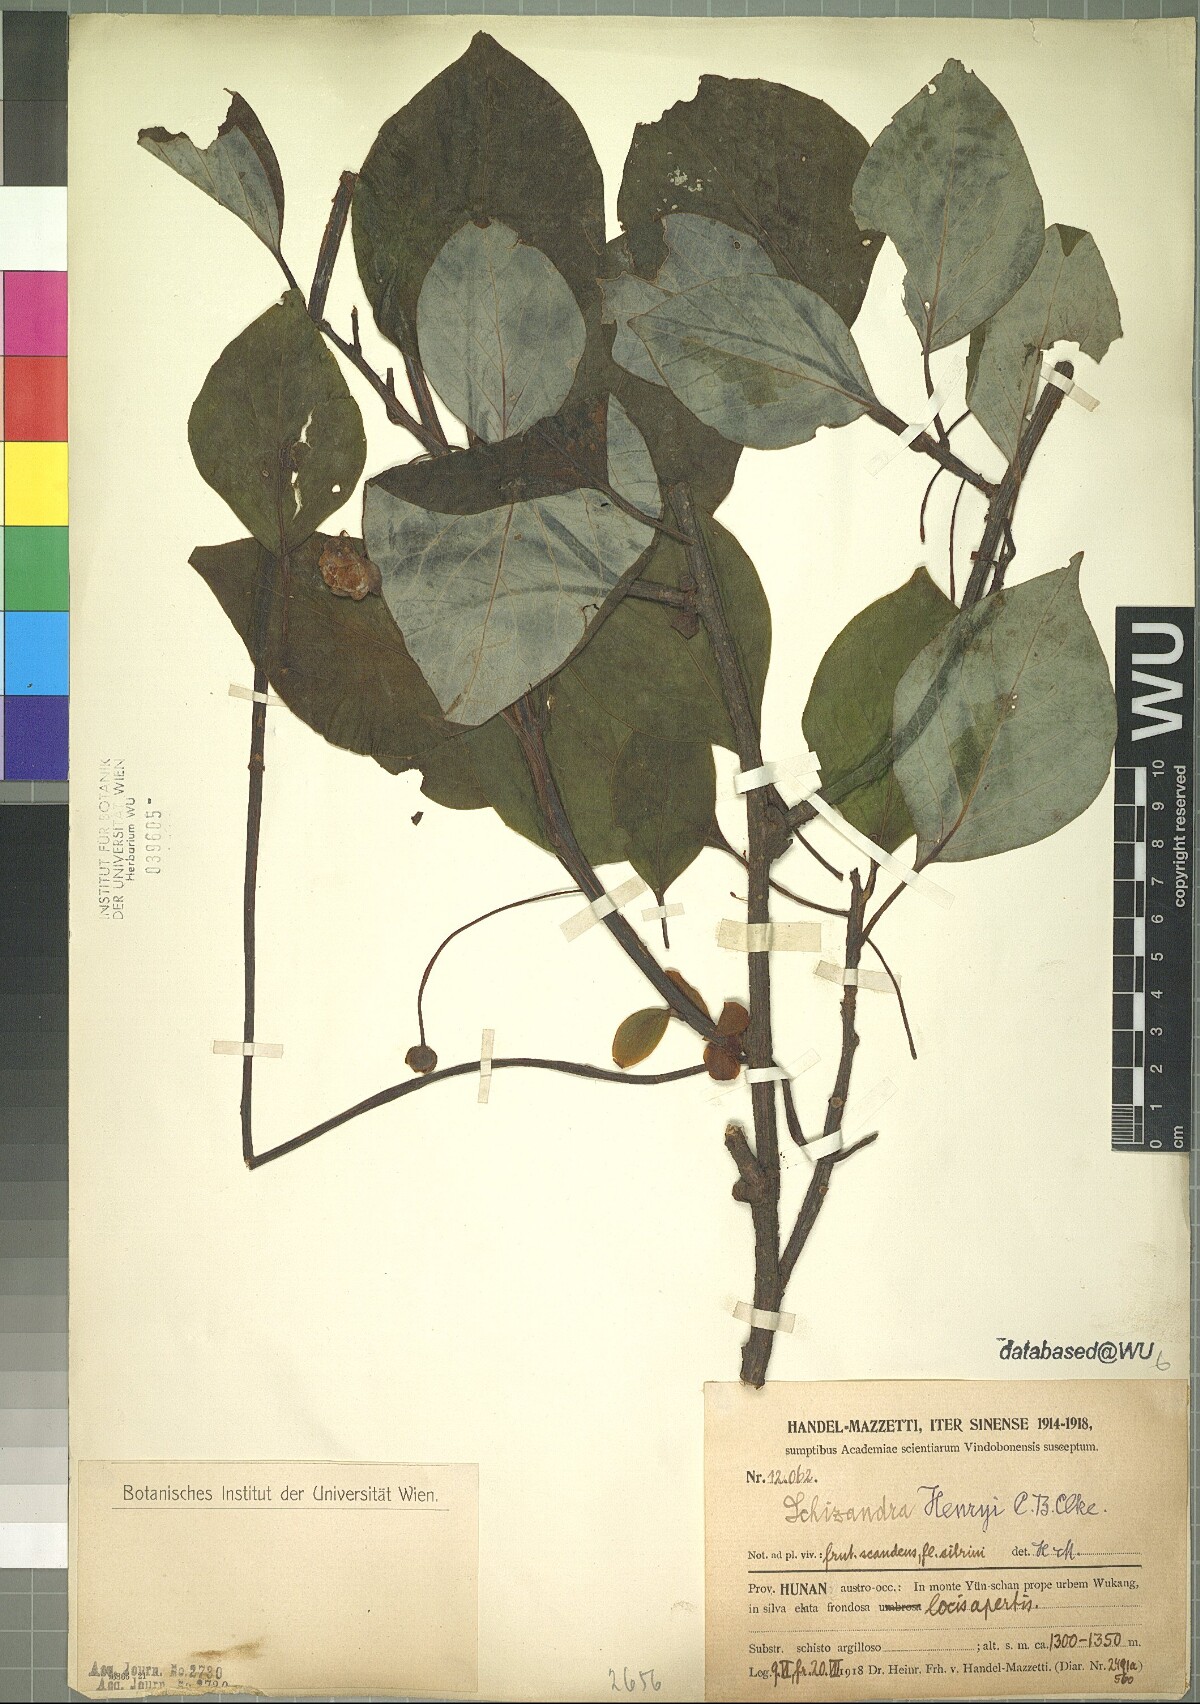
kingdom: Plantae
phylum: Tracheophyta
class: Magnoliopsida
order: Austrobaileyales
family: Schisandraceae
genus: Schisandra
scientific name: Schisandra henryi
